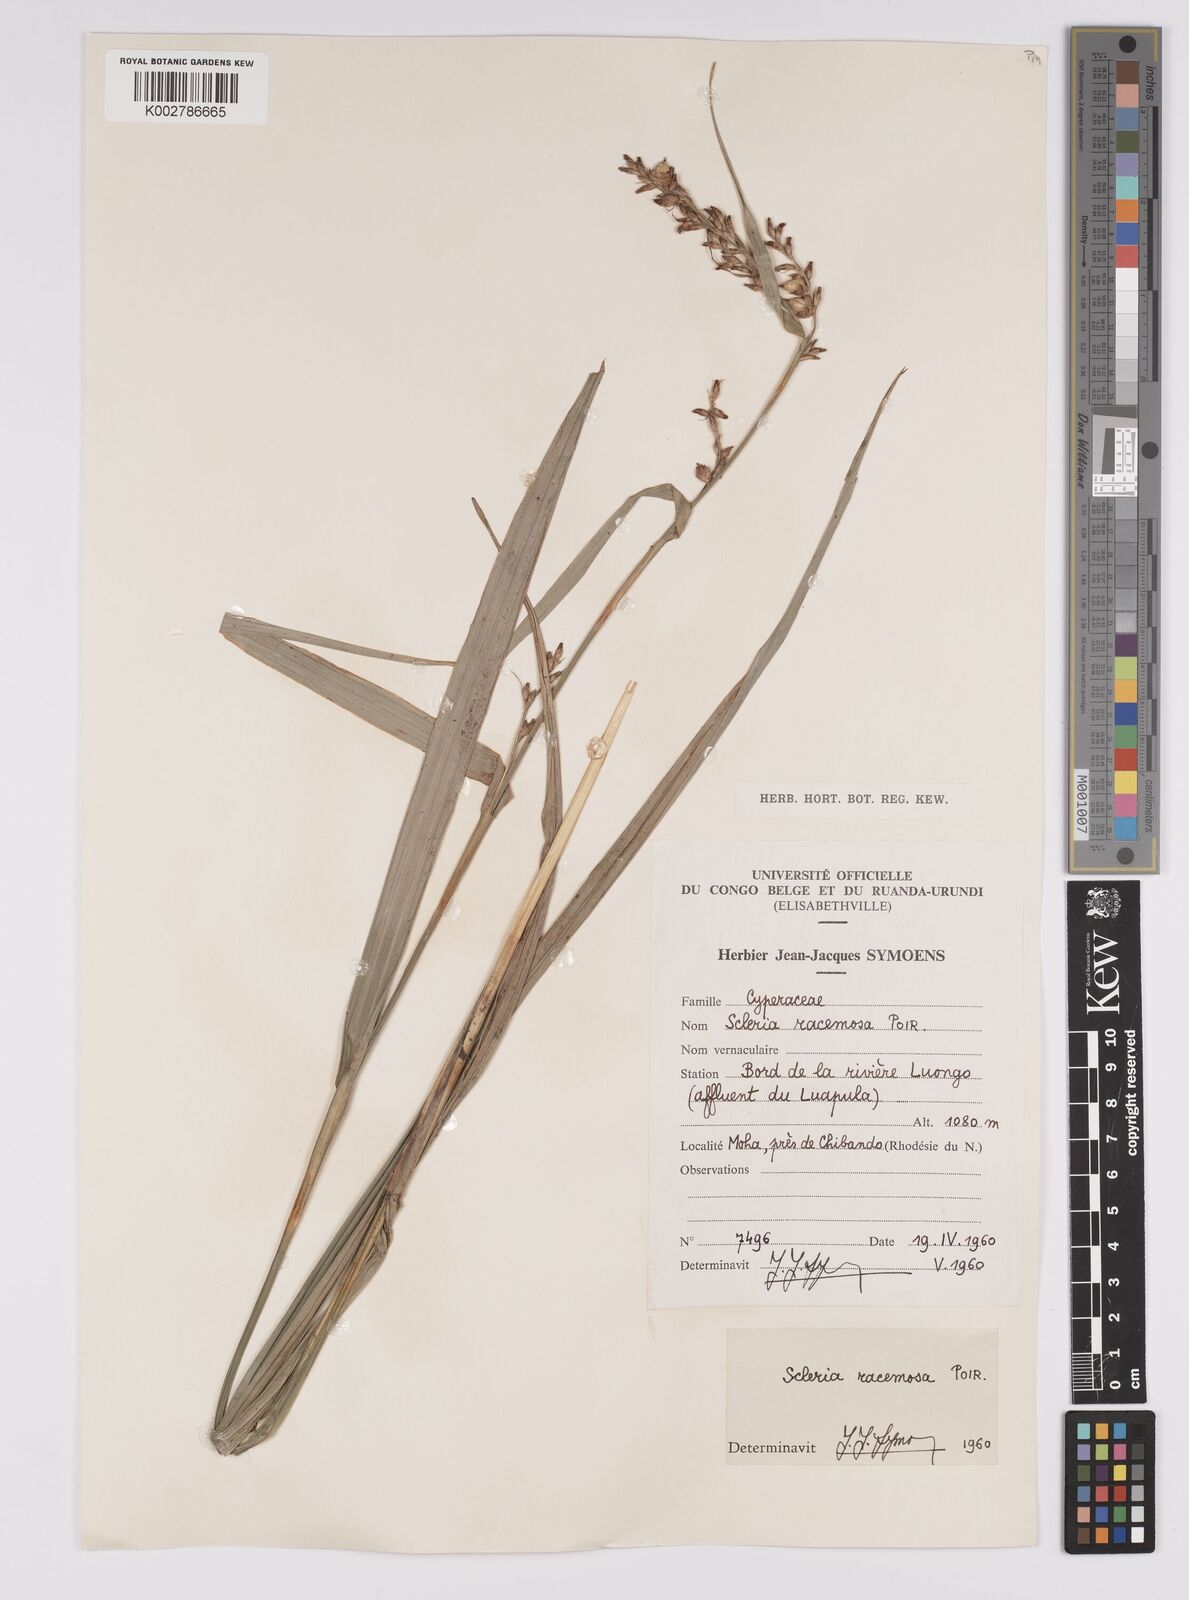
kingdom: Plantae
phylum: Tracheophyta
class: Liliopsida
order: Poales
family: Cyperaceae
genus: Scleria
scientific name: Scleria racemosa
